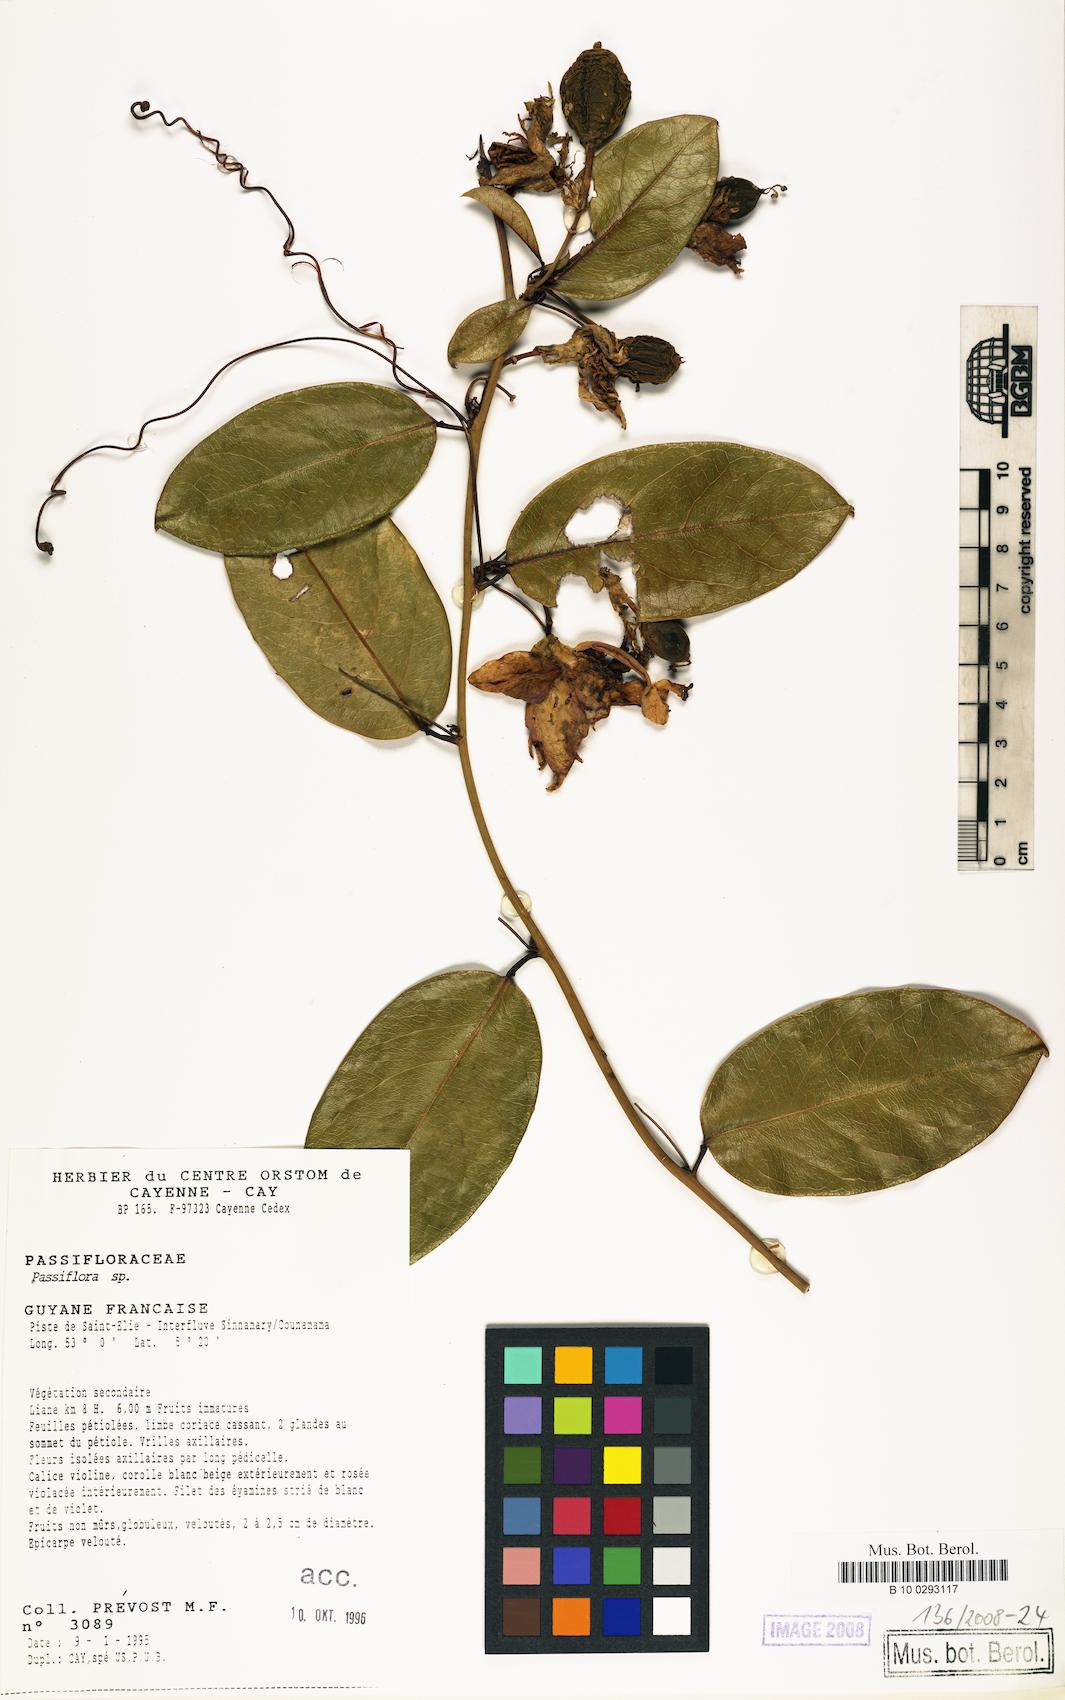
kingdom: Plantae
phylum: Tracheophyta
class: Magnoliopsida
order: Malpighiales
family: Passifloraceae
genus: Passiflora
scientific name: Passiflora
